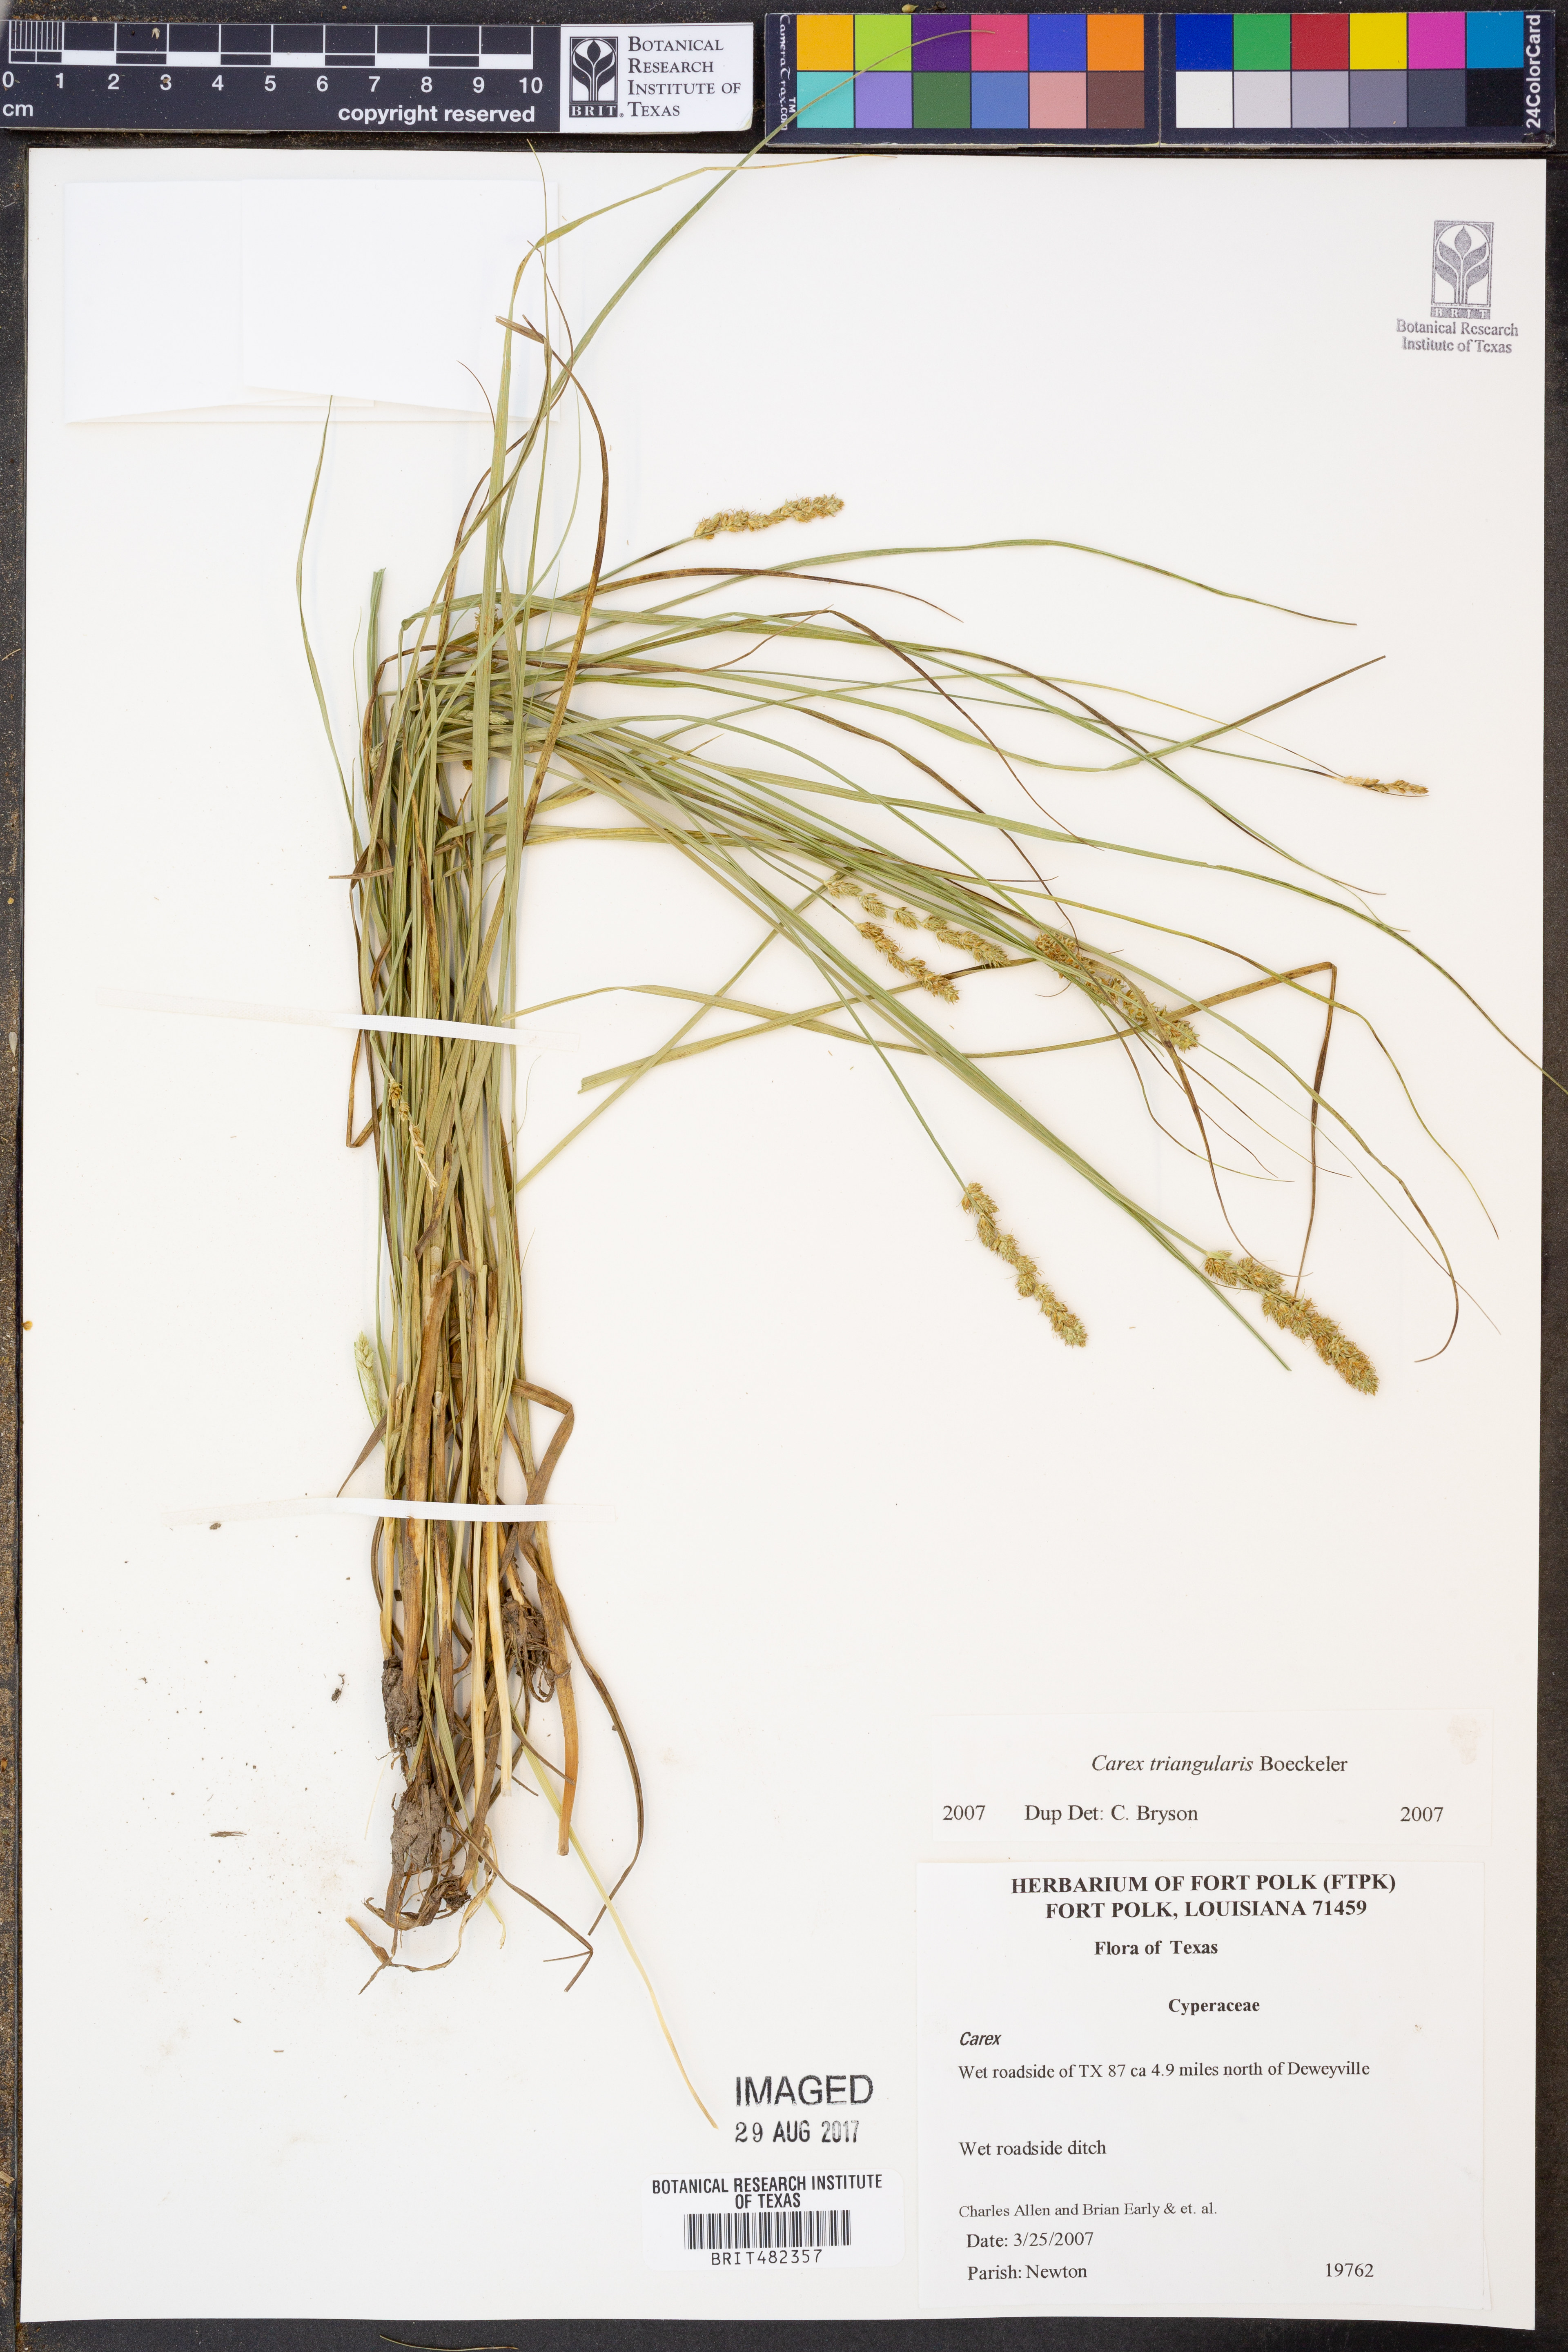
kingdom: Plantae
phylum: Tracheophyta
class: Liliopsida
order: Poales
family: Cyperaceae
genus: Carex
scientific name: Carex triangularis
